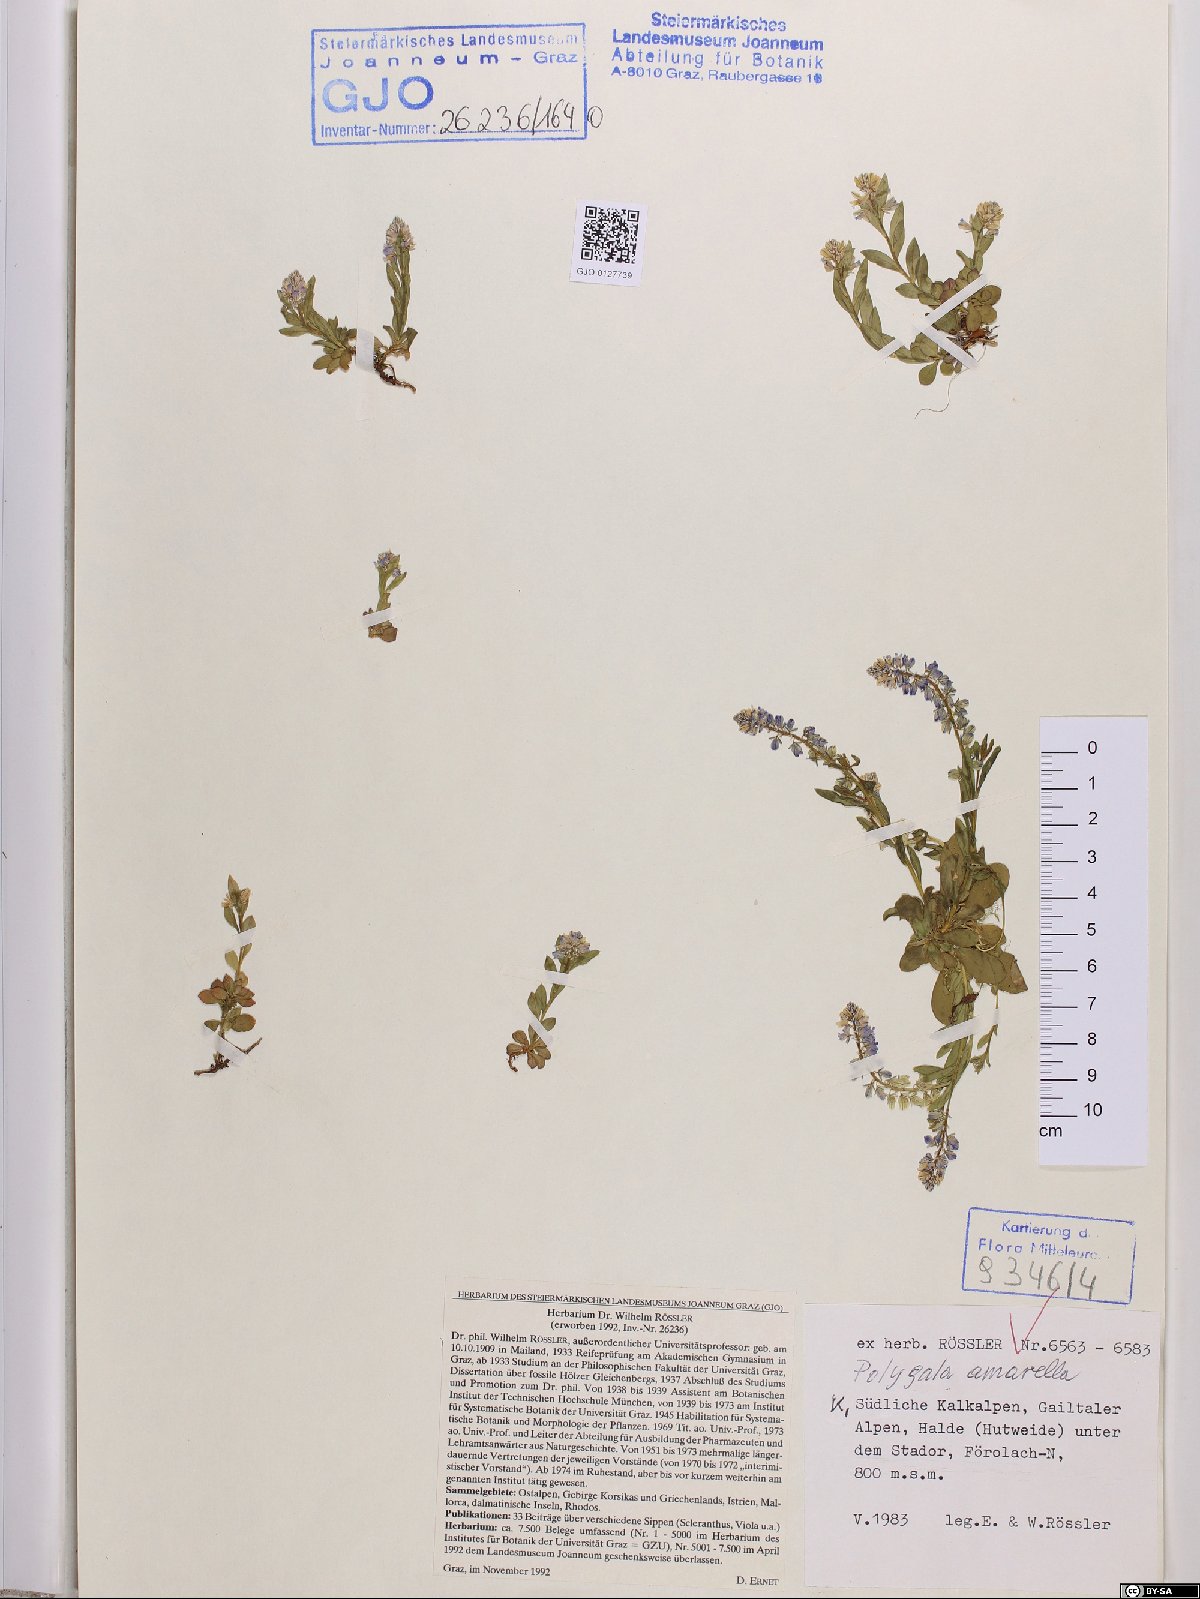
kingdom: Plantae
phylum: Tracheophyta
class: Magnoliopsida
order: Fabales
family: Polygalaceae
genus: Polygala
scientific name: Polygala amarella
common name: Dwarf milkwort
